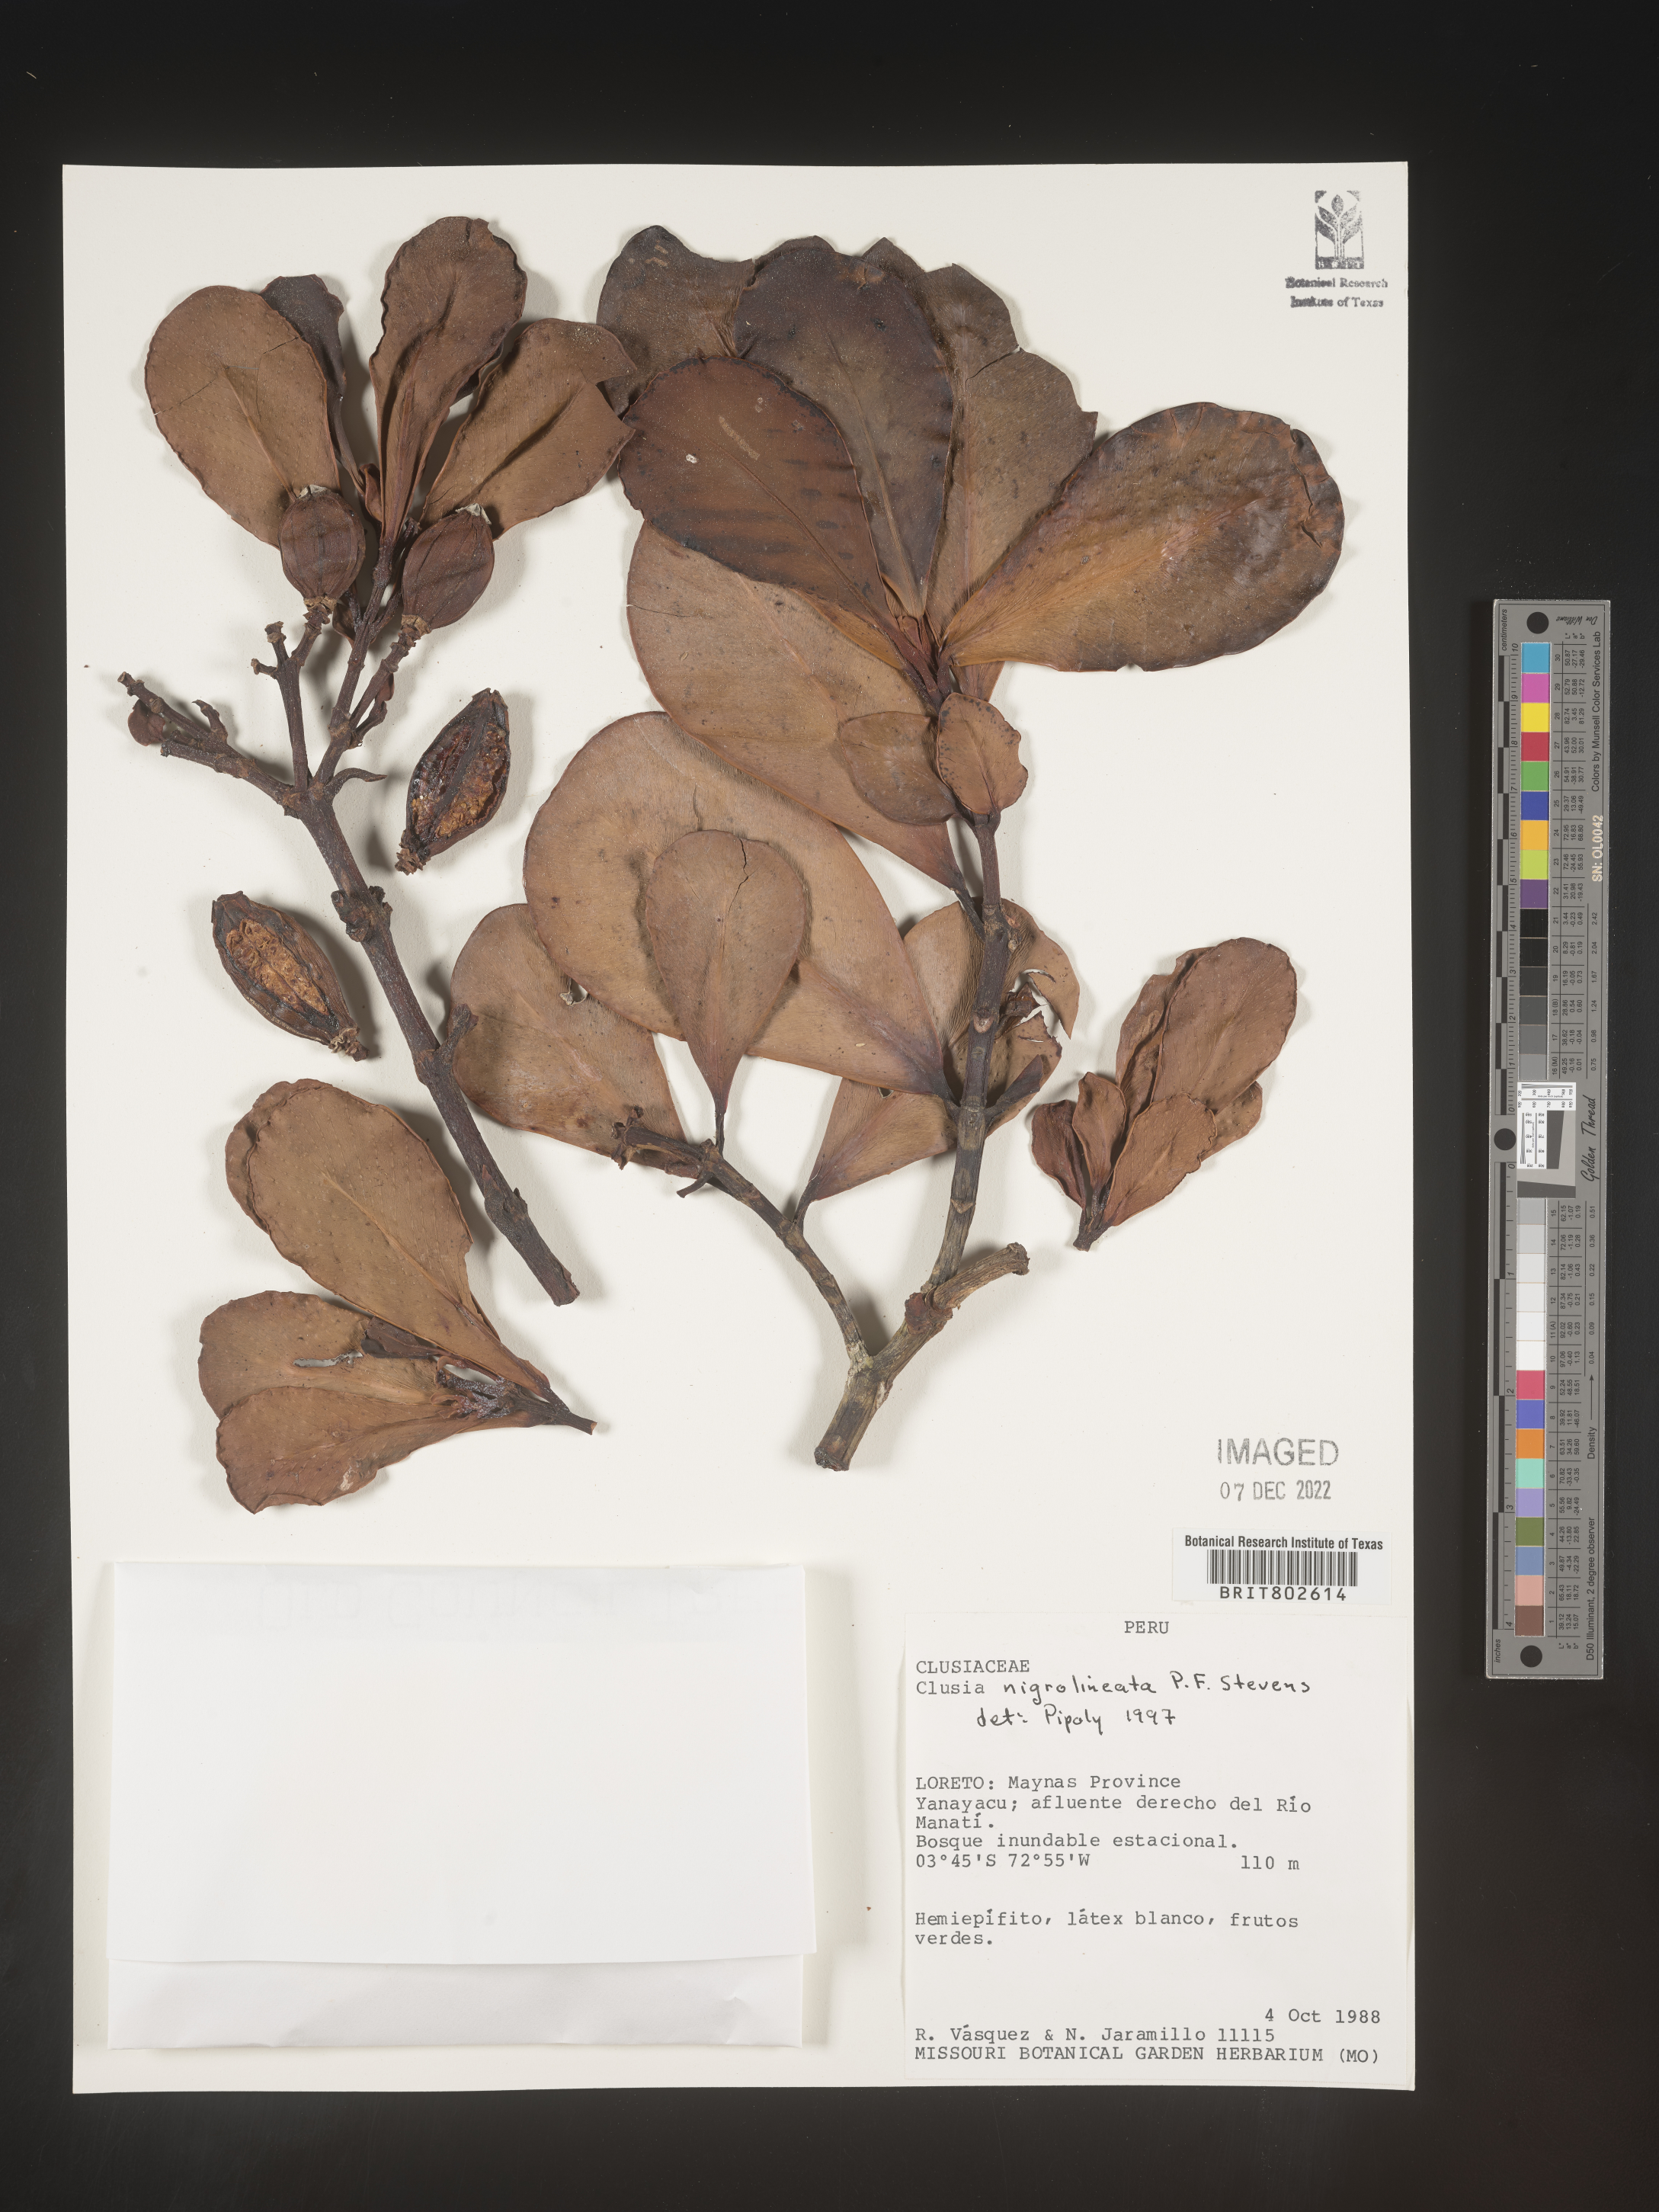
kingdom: Plantae
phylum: Tracheophyta
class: Magnoliopsida
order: Malpighiales
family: Clusiaceae
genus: Clusia
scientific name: Clusia nigrolineata
